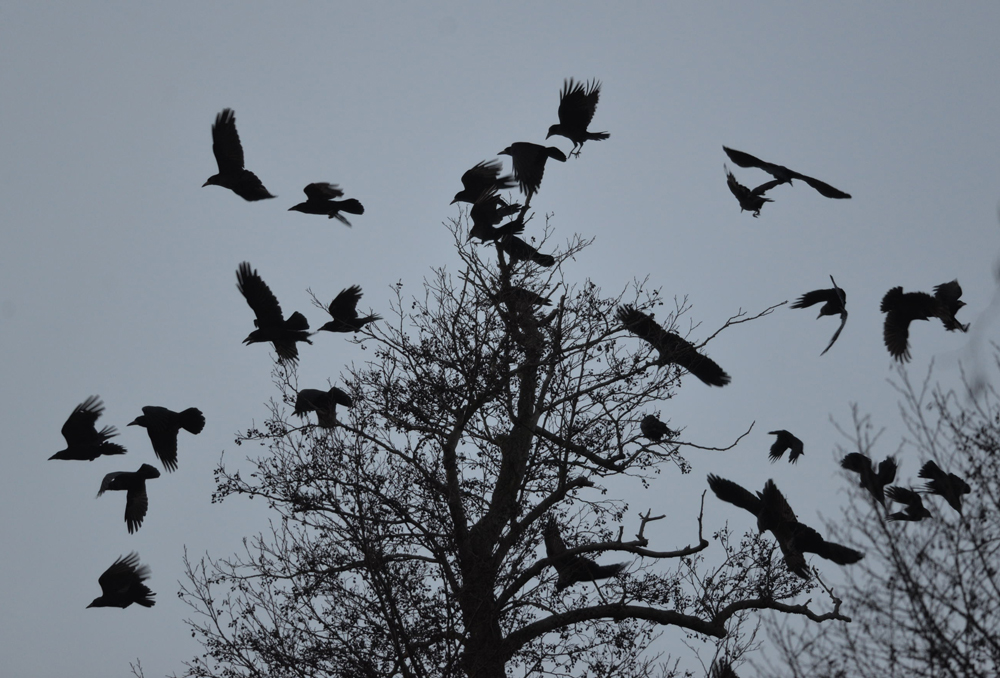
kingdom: Animalia
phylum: Chordata
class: Aves
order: Passeriformes
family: Corvidae
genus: Corvus
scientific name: Corvus frugilegus
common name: Rook
